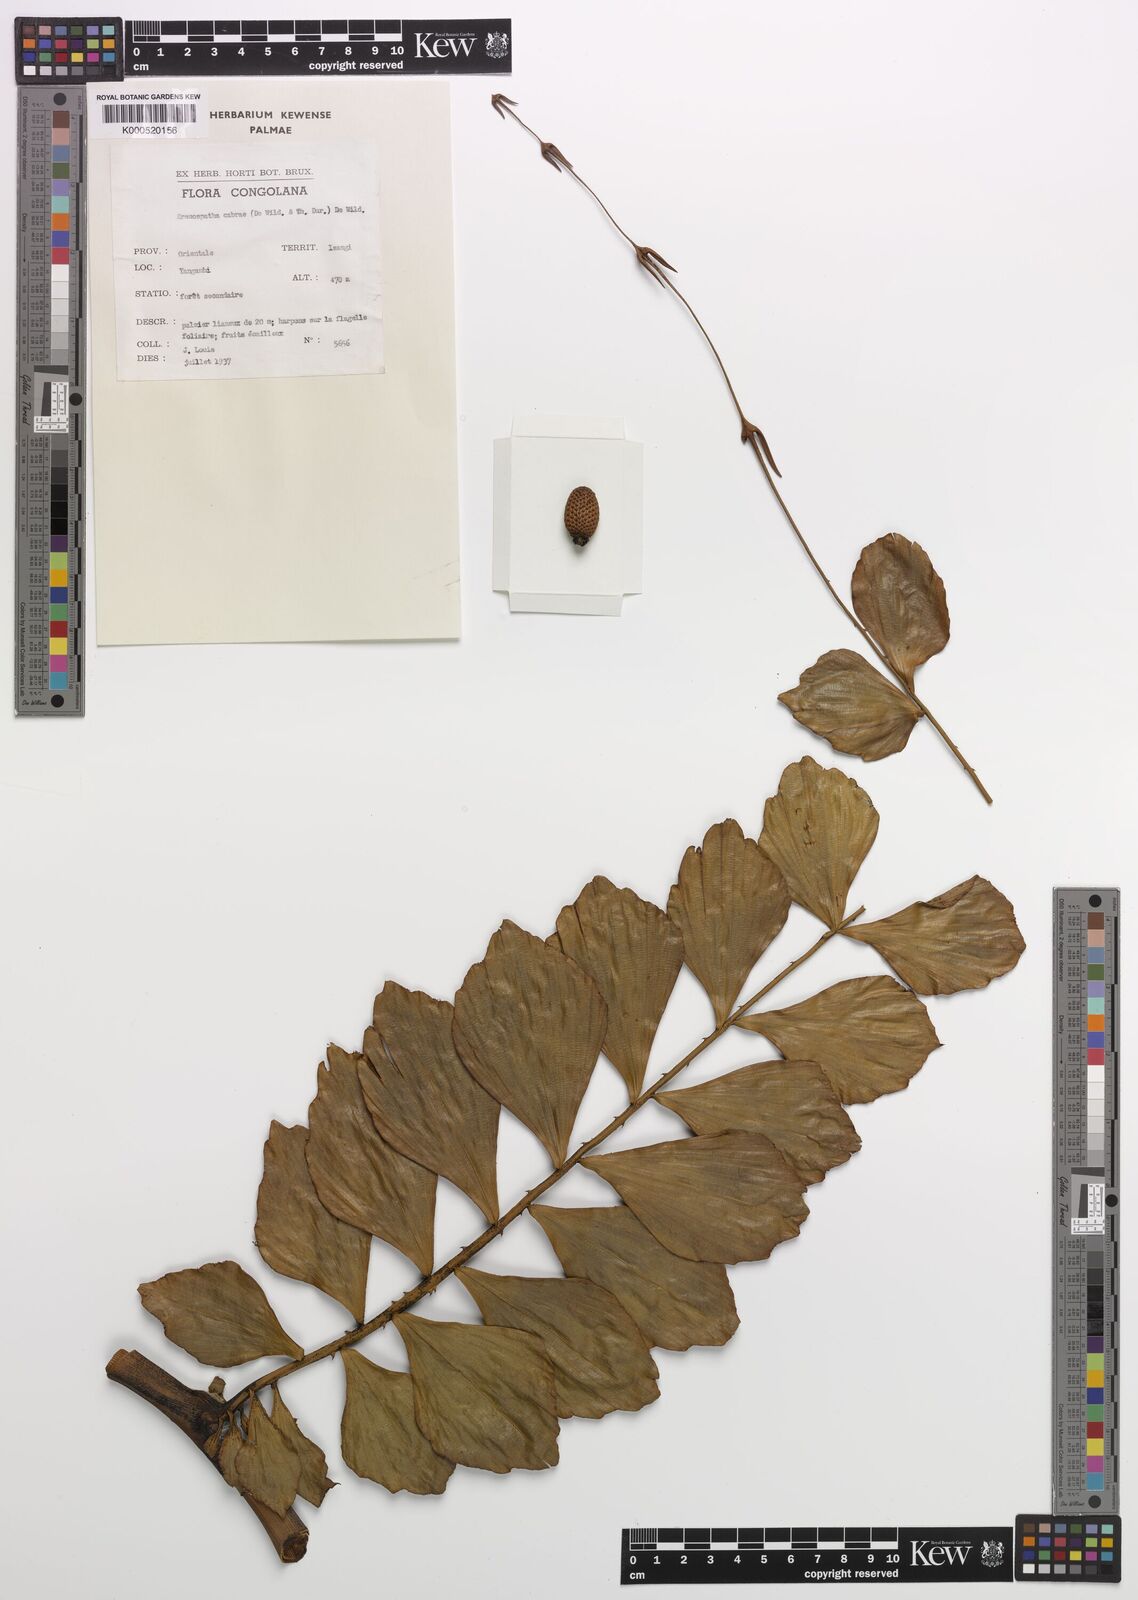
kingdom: Plantae
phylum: Tracheophyta
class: Liliopsida
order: Arecales
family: Arecaceae
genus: Eremospatha
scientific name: Eremospatha cabrae
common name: Rattan
